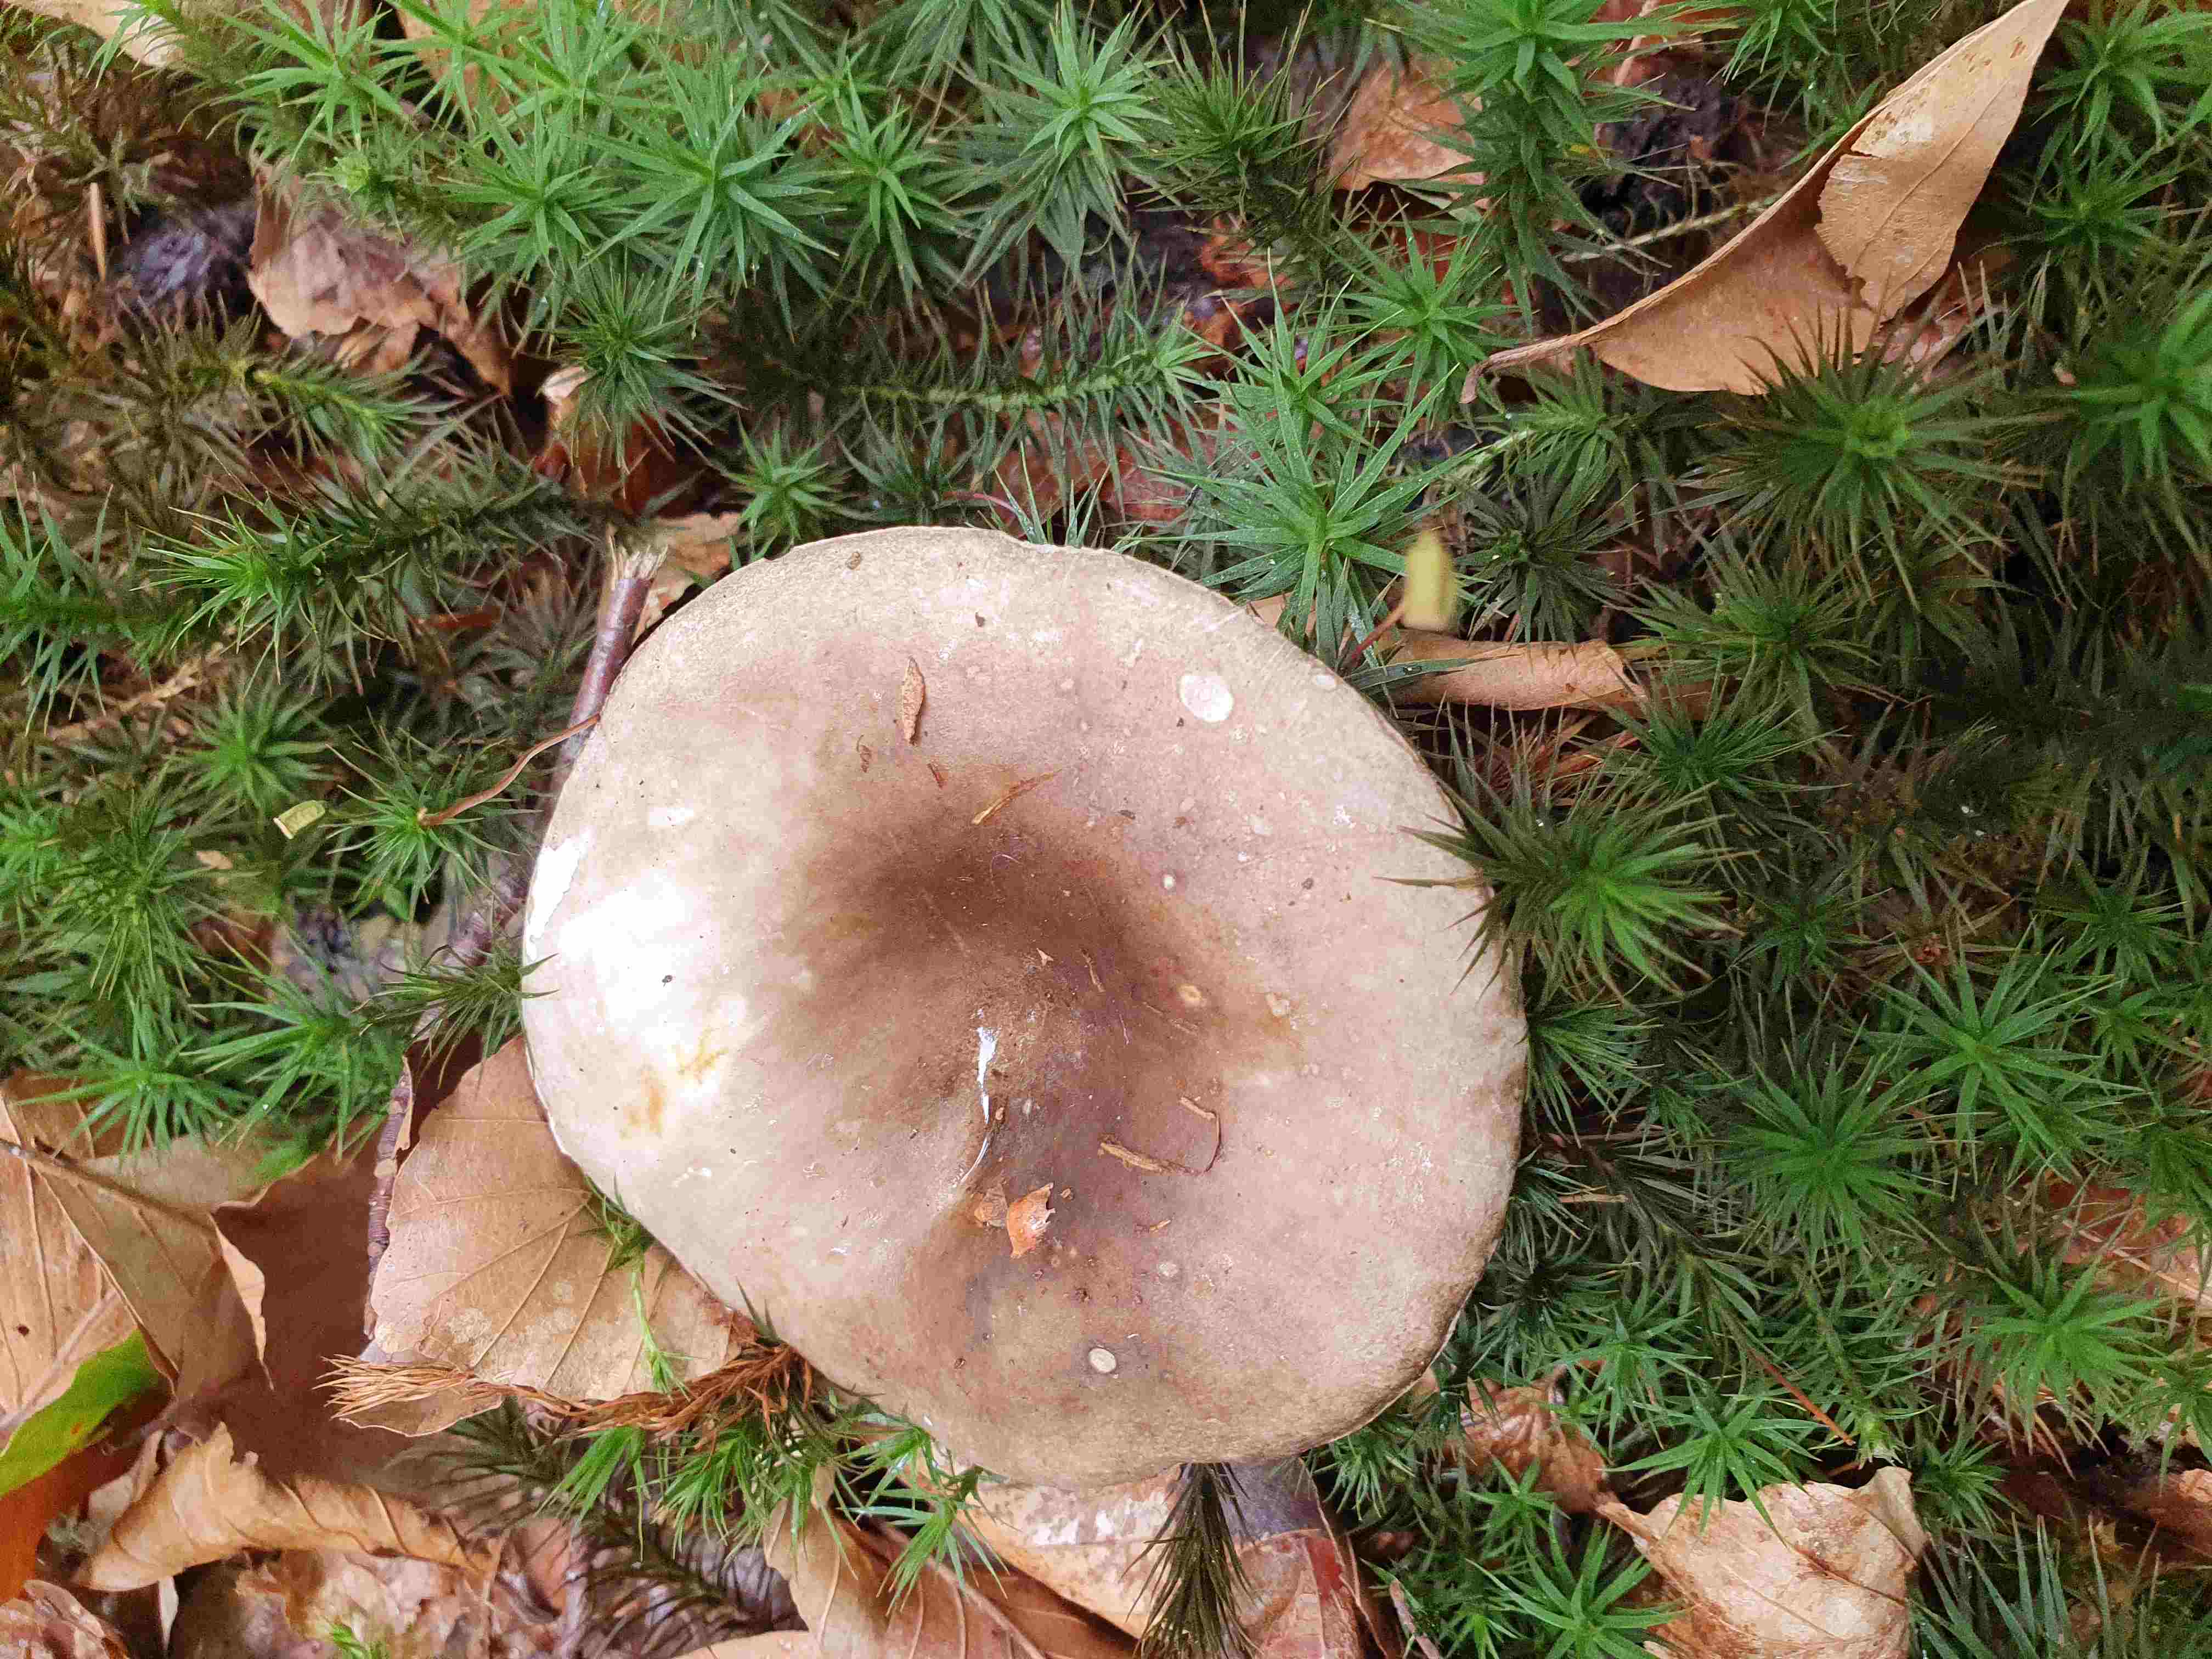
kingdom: Fungi
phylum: Basidiomycota
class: Agaricomycetes
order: Russulales
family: Russulaceae
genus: Russula
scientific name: Russula
